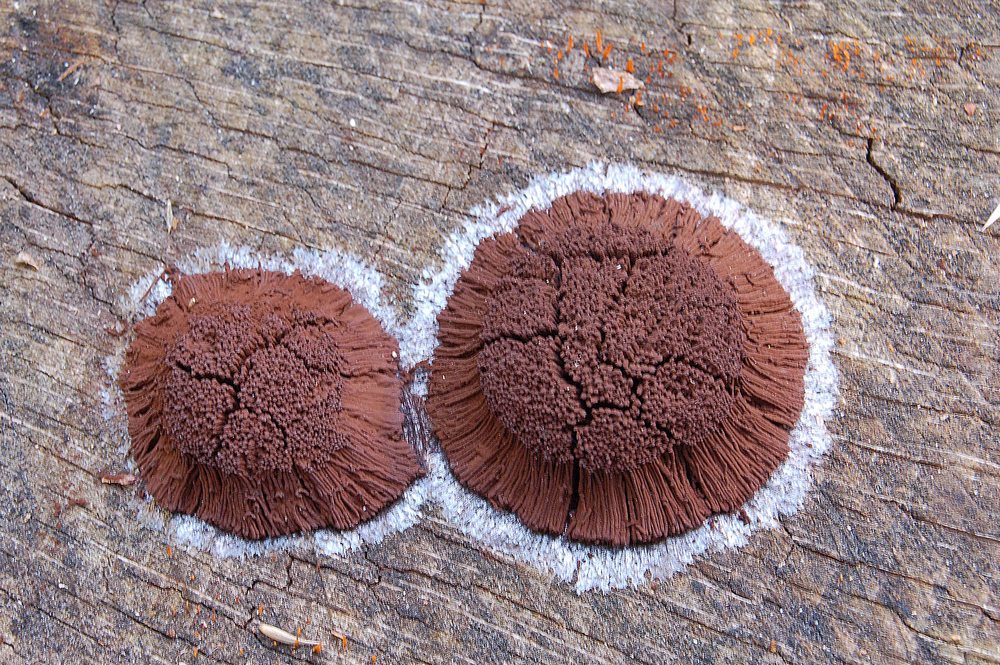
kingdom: Protozoa
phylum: Mycetozoa
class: Myxomycetes
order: Stemonitidales
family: Stemonitidaceae
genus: Symphytocarpus
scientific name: Symphytocarpus flaccidus
